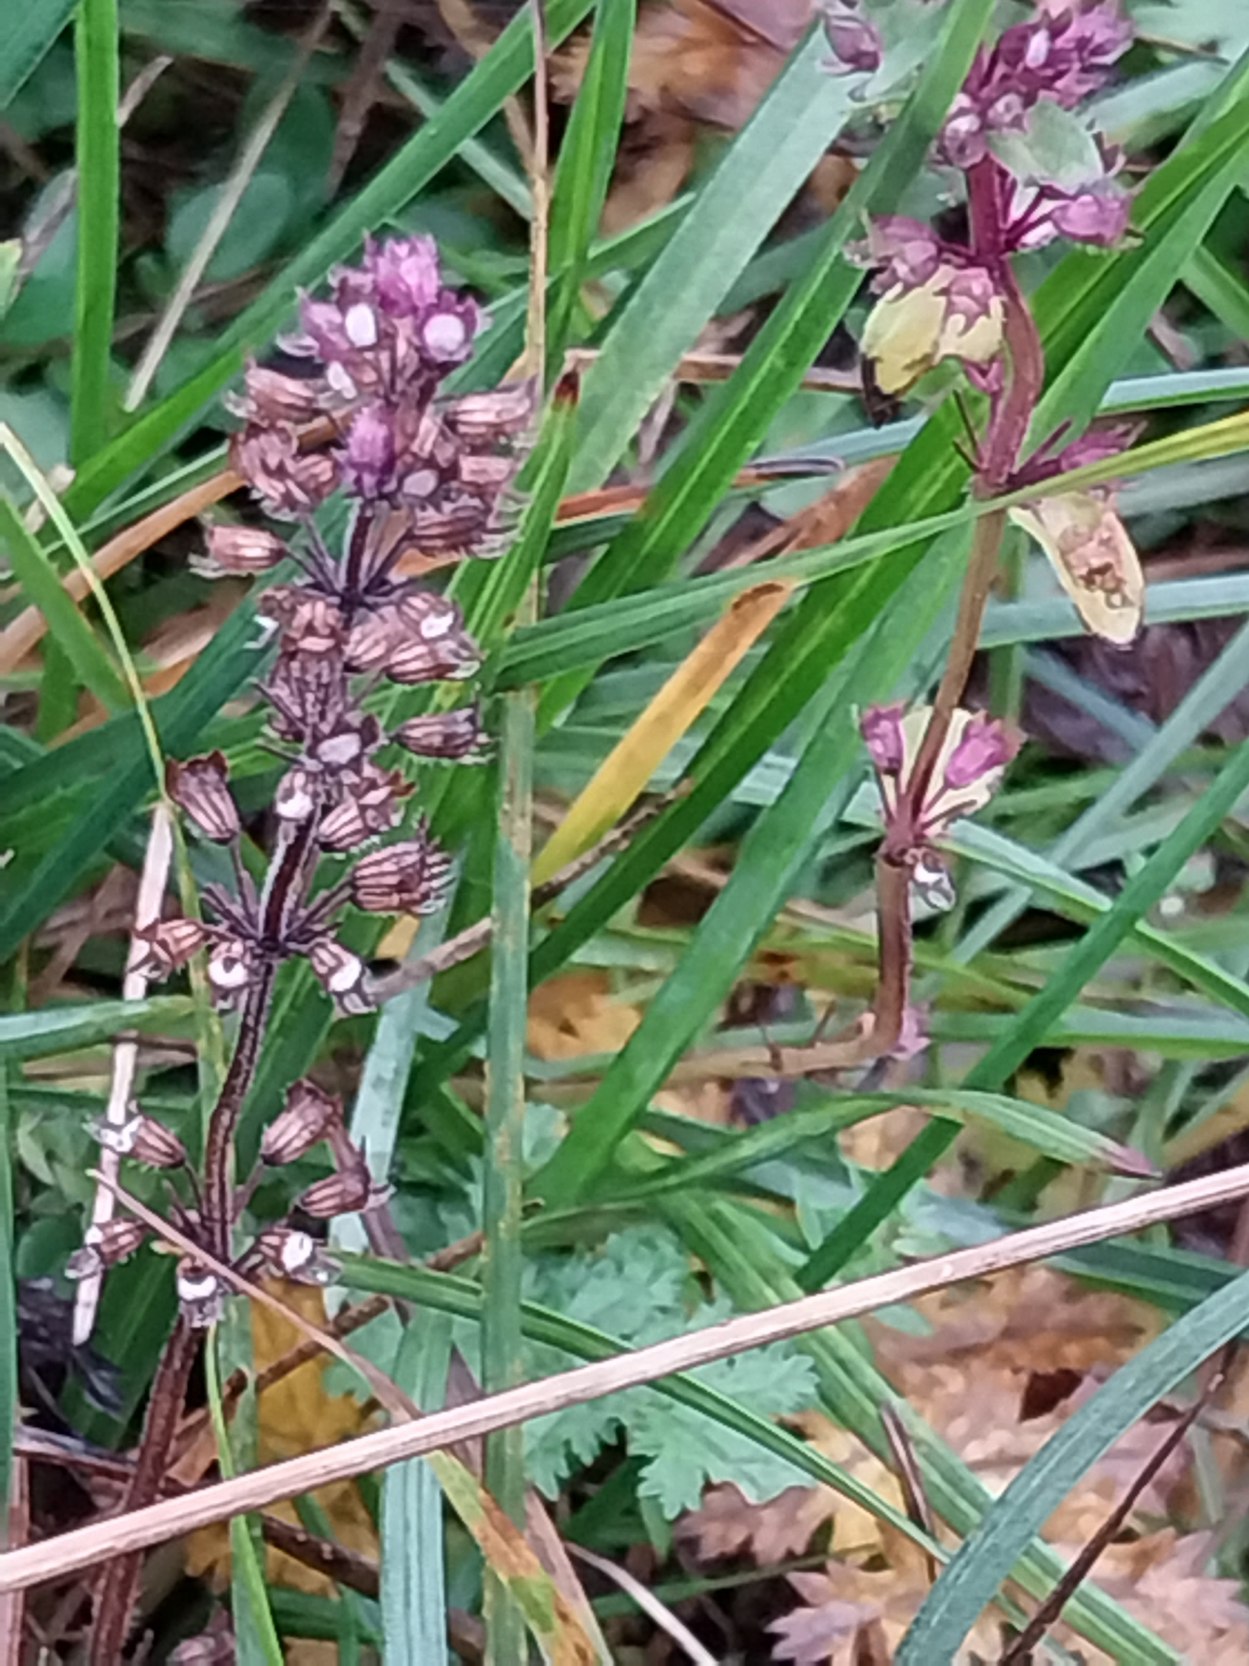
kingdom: Plantae
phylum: Tracheophyta
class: Magnoliopsida
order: Lamiales
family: Lamiaceae
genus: Thymus
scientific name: Thymus pulegioides
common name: Bredbladet timian
